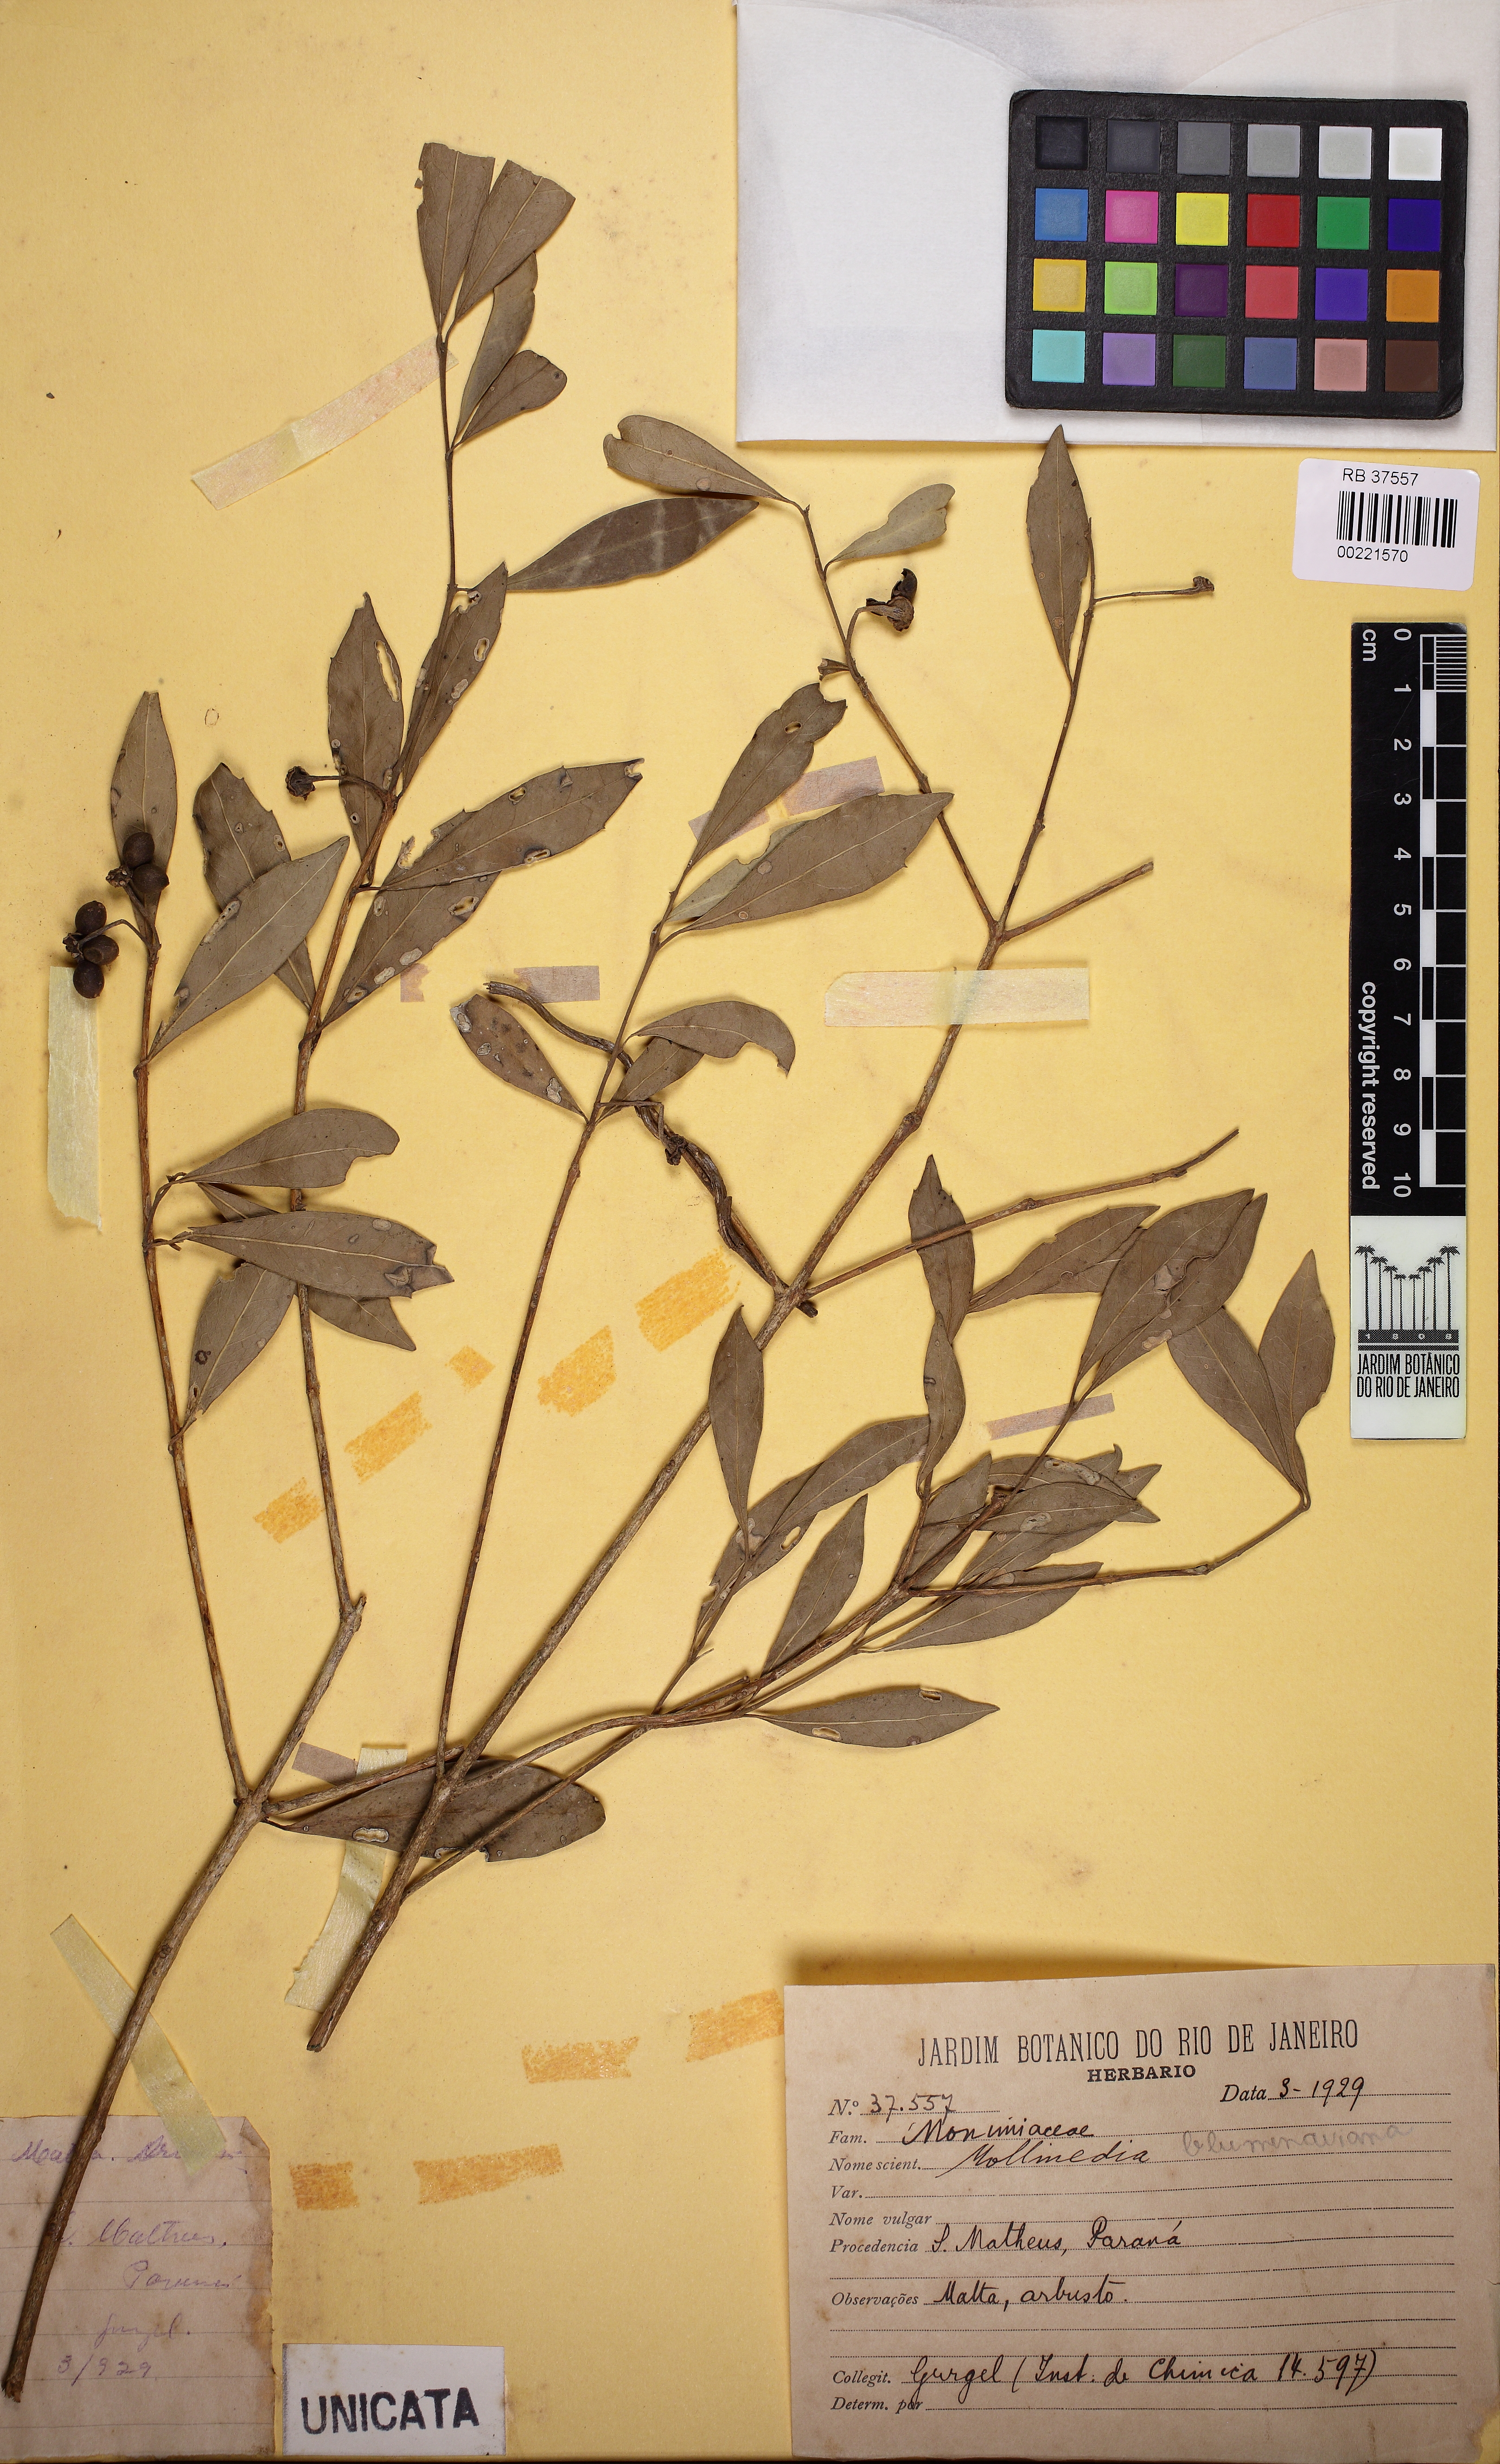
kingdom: Plantae
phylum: Tracheophyta
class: Magnoliopsida
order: Laurales
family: Monimiaceae
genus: Mollinedia
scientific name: Mollinedia pfitzeriana
